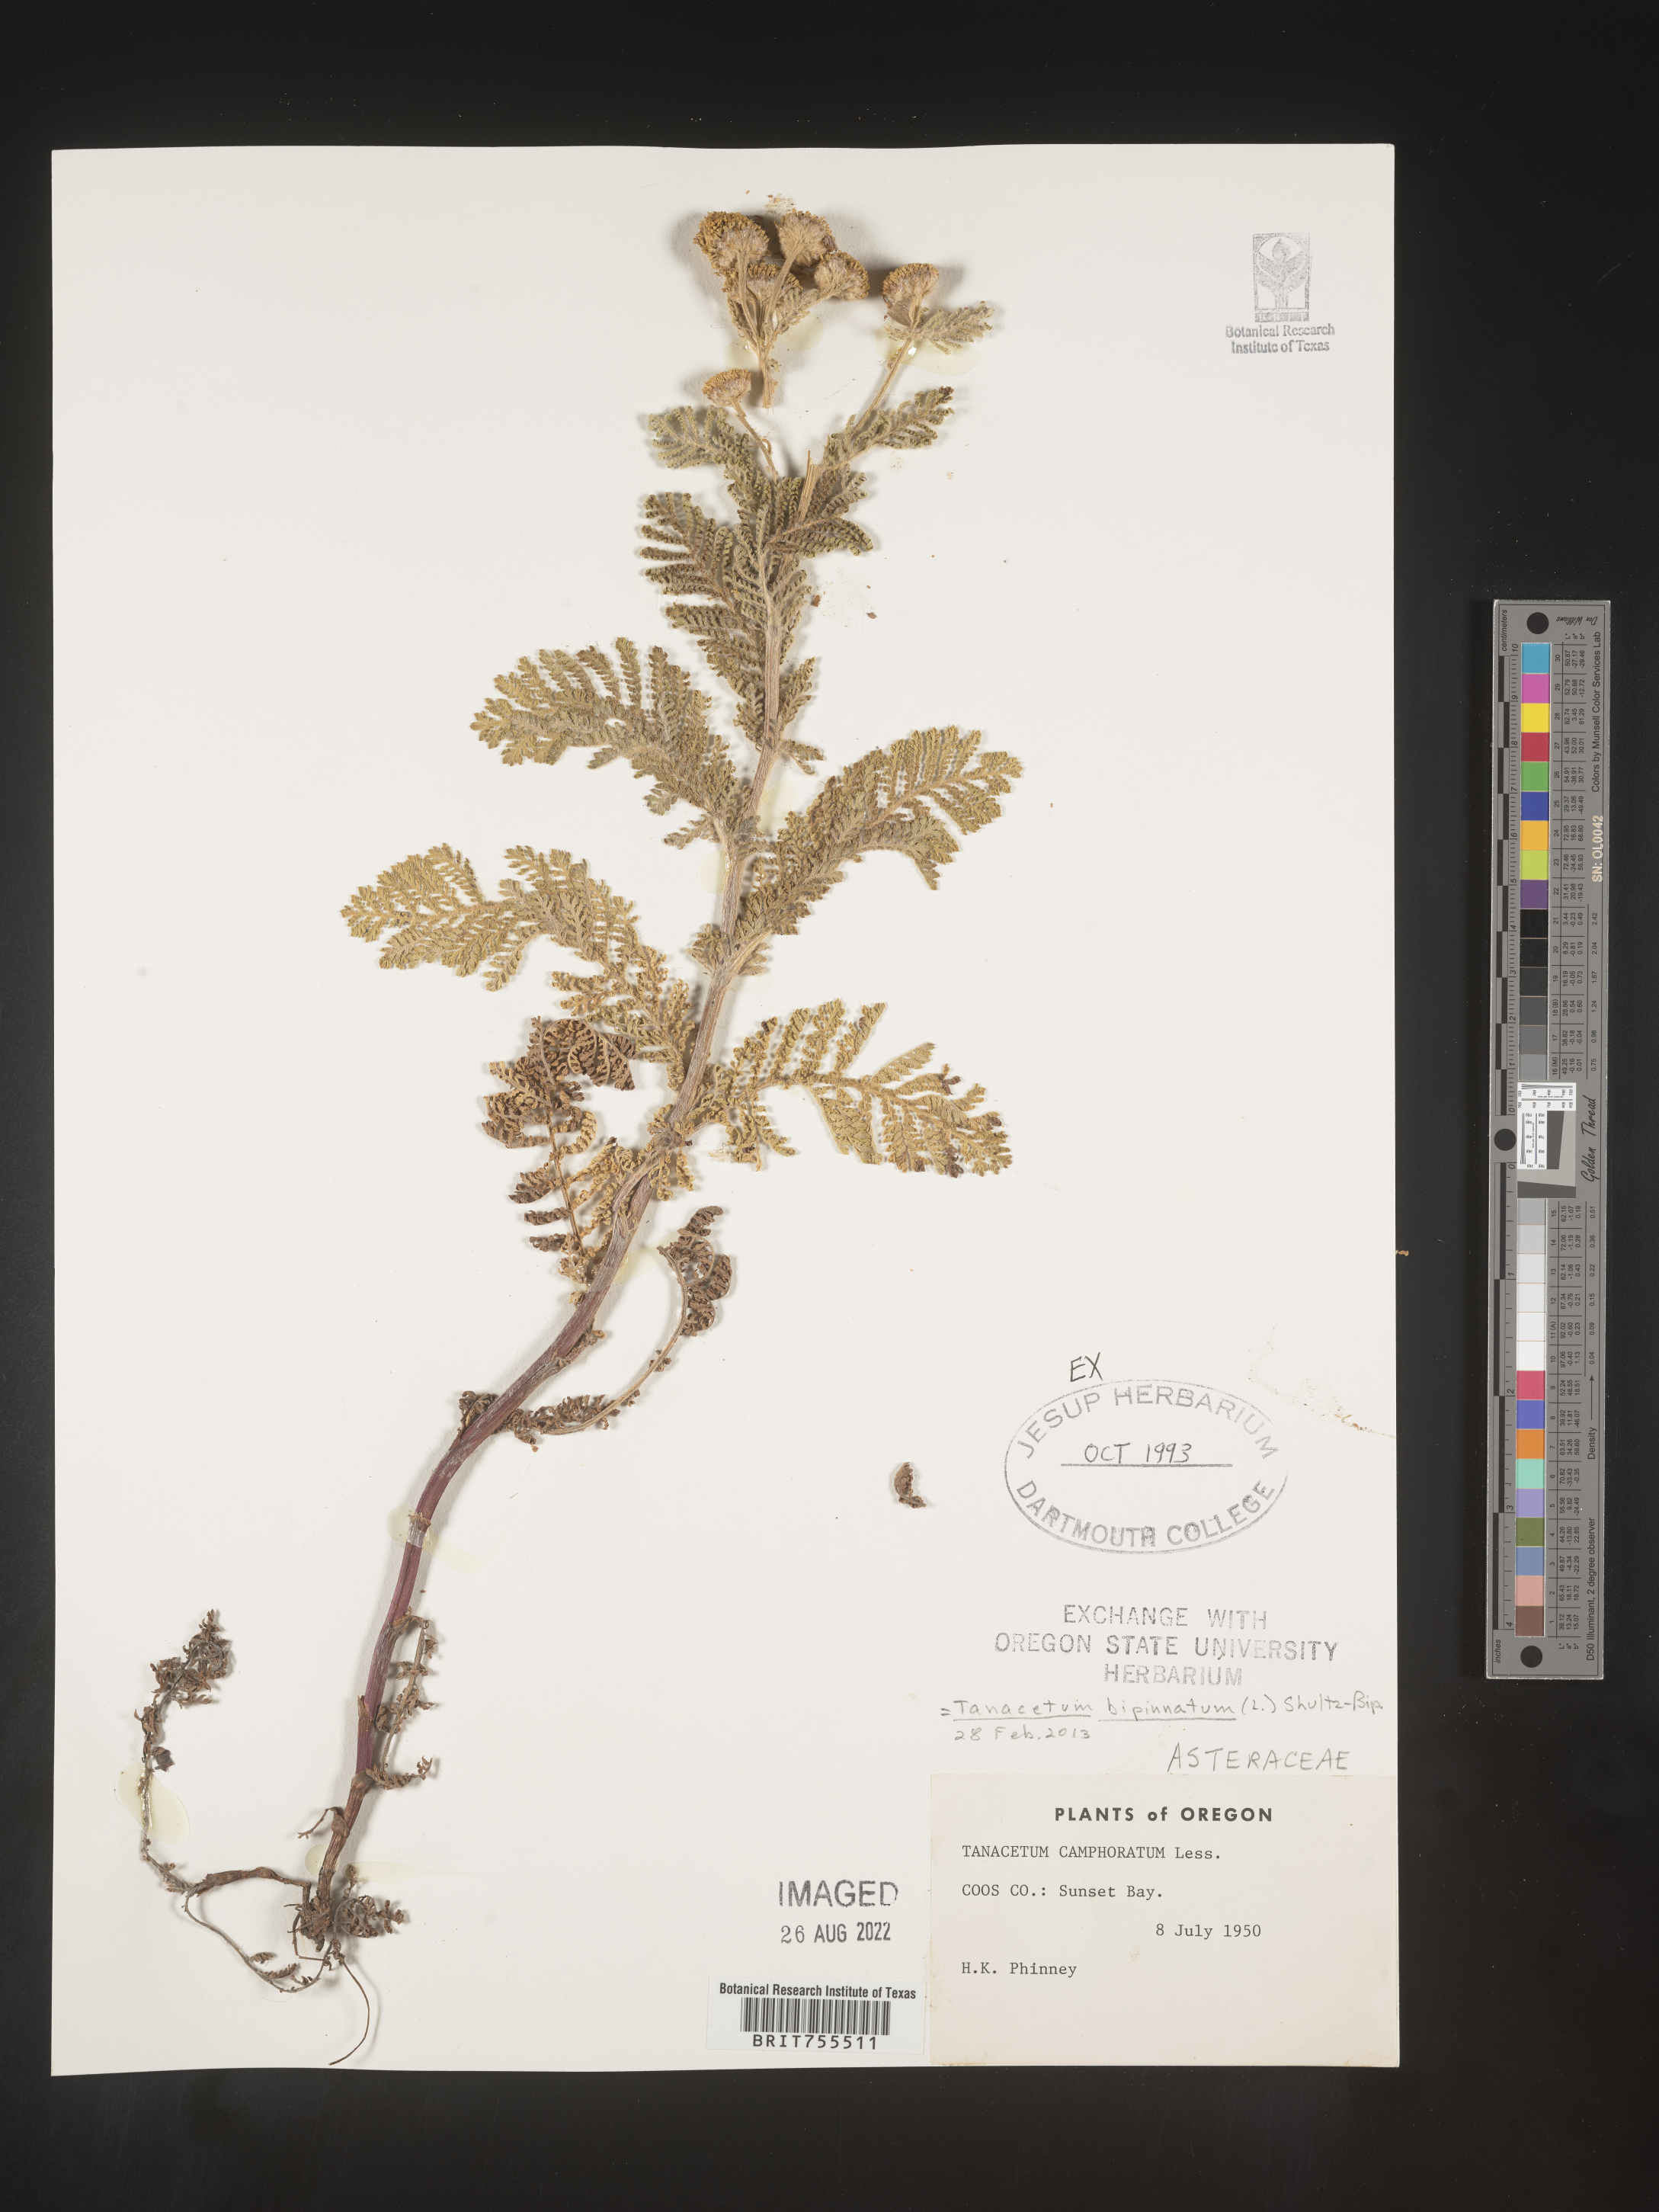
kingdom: Plantae
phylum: Tracheophyta
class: Magnoliopsida
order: Asterales
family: Asteraceae
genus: Tanacetum
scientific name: Tanacetum bipinnatum
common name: Dwarf tansy
